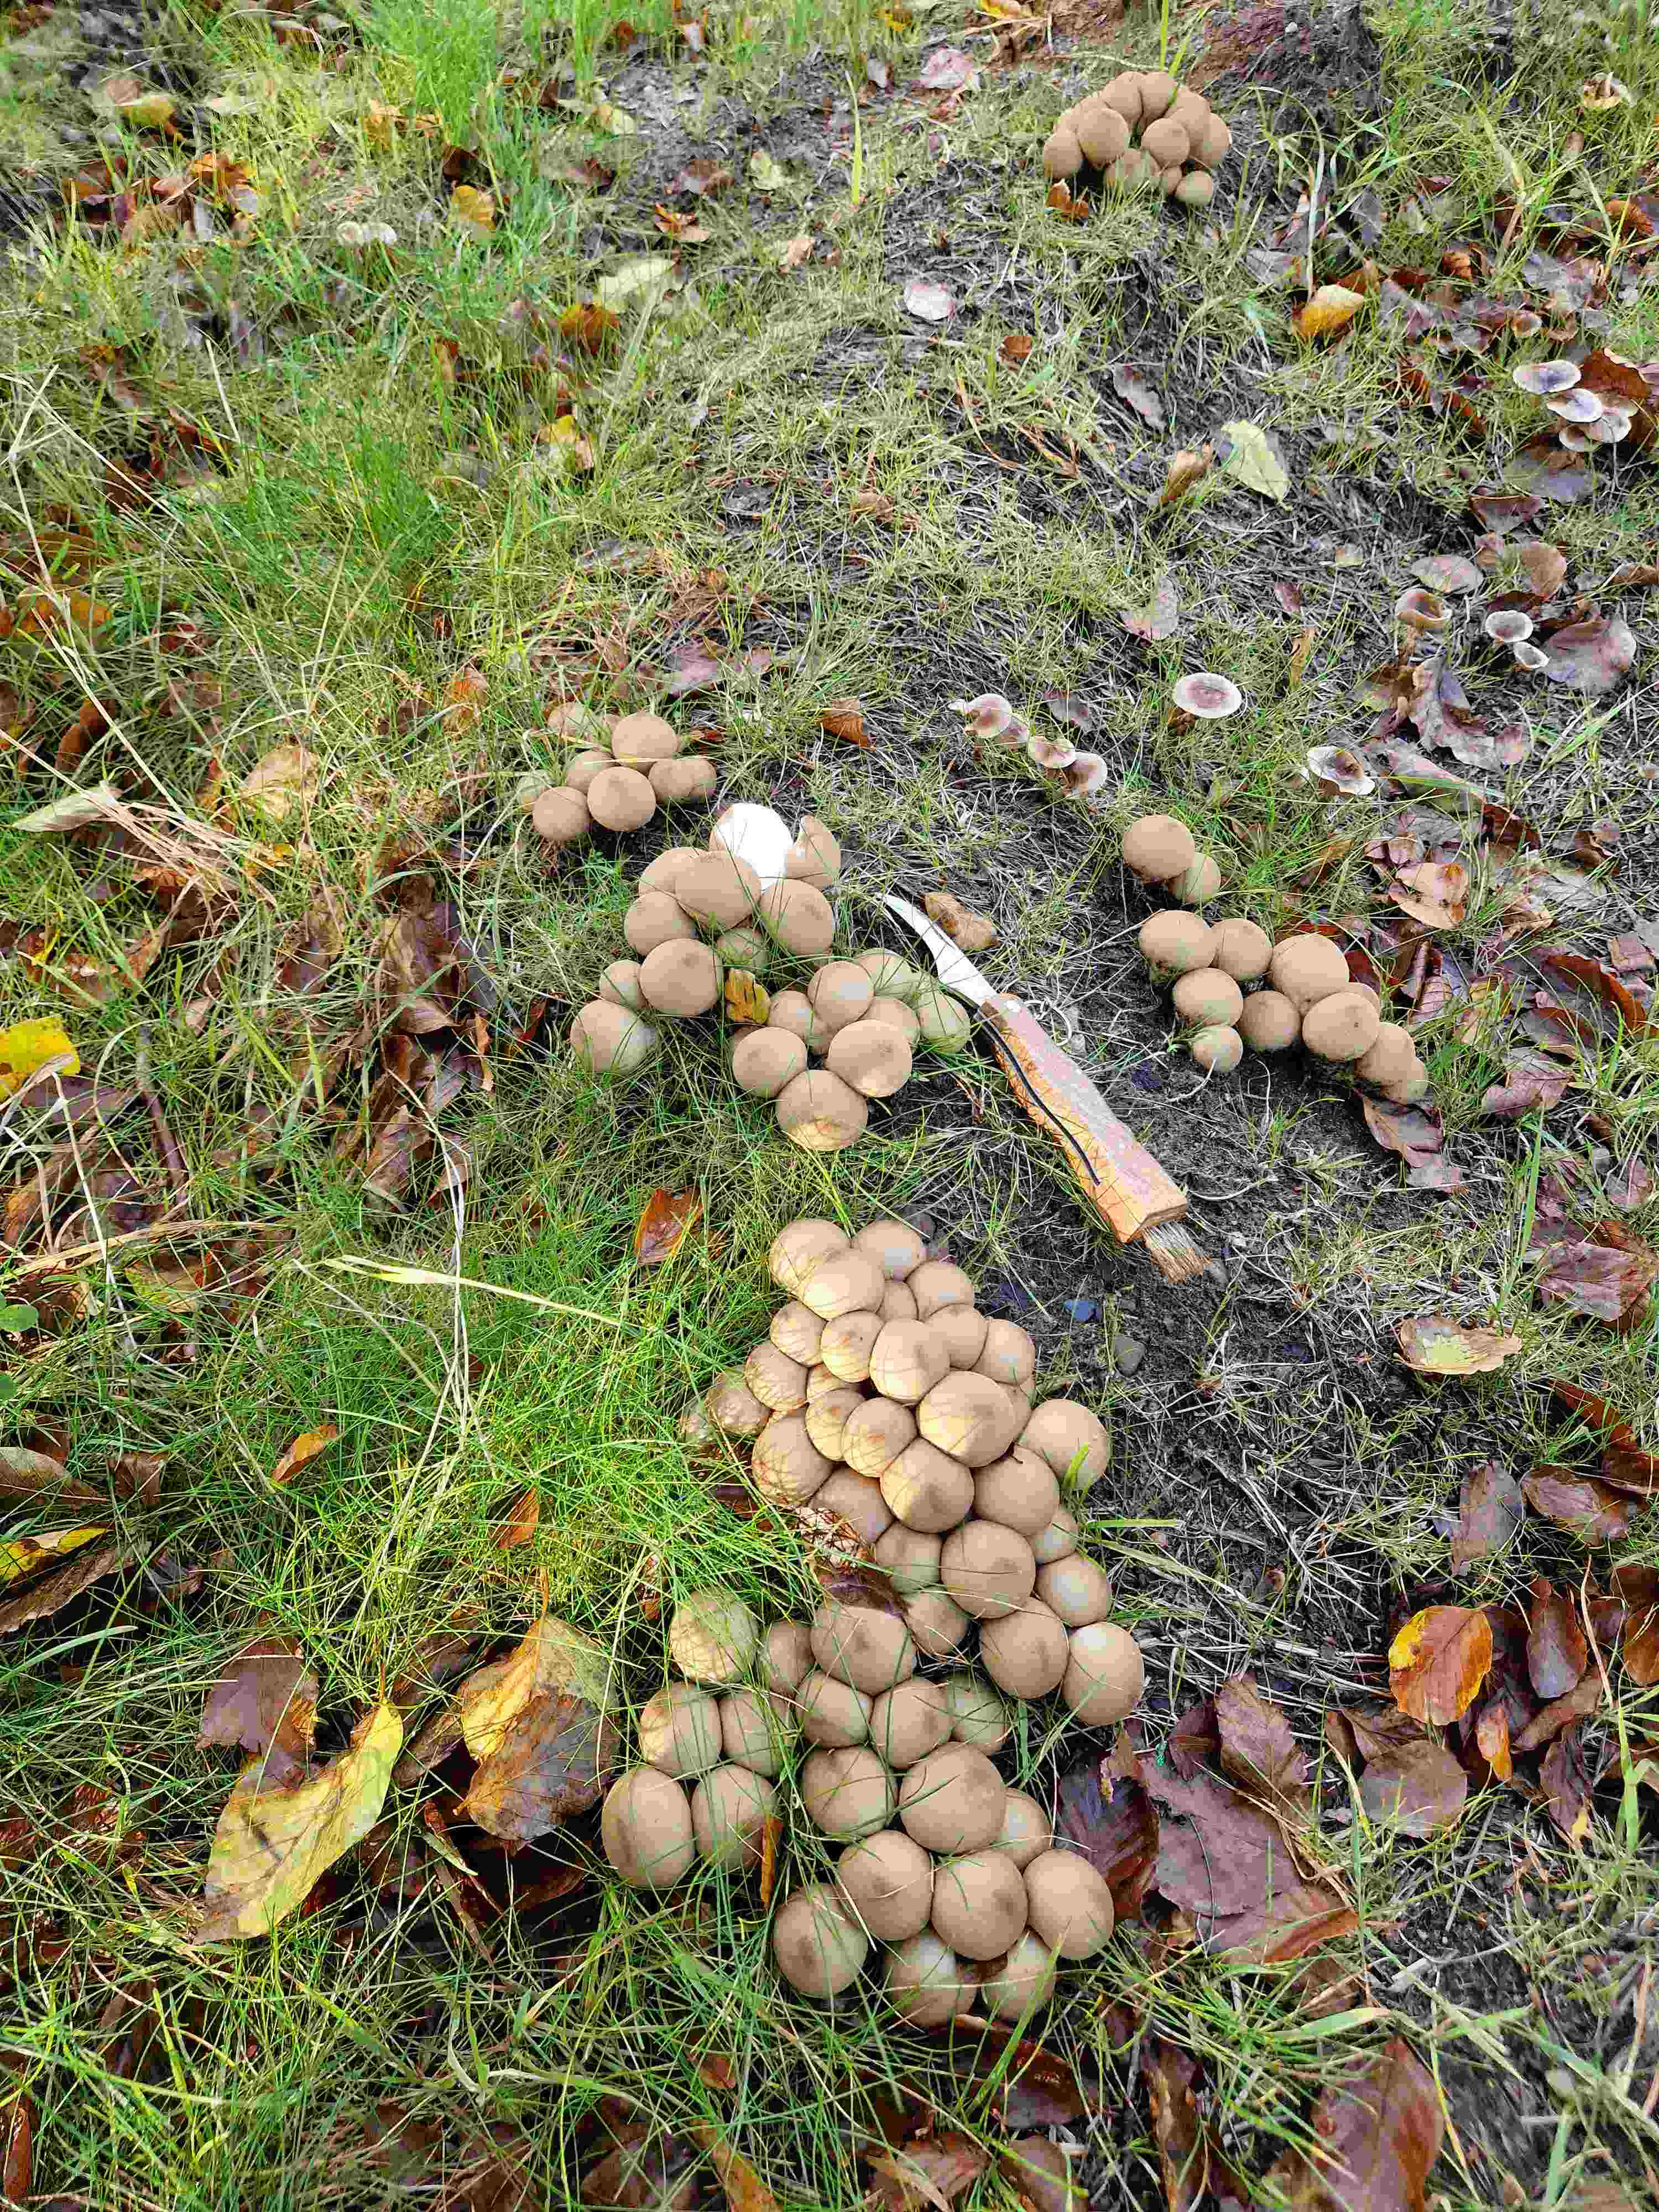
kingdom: Fungi
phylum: Basidiomycota
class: Agaricomycetes
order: Agaricales
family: Lycoperdaceae
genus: Apioperdon
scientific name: Apioperdon pyriforme
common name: pære-støvbold
